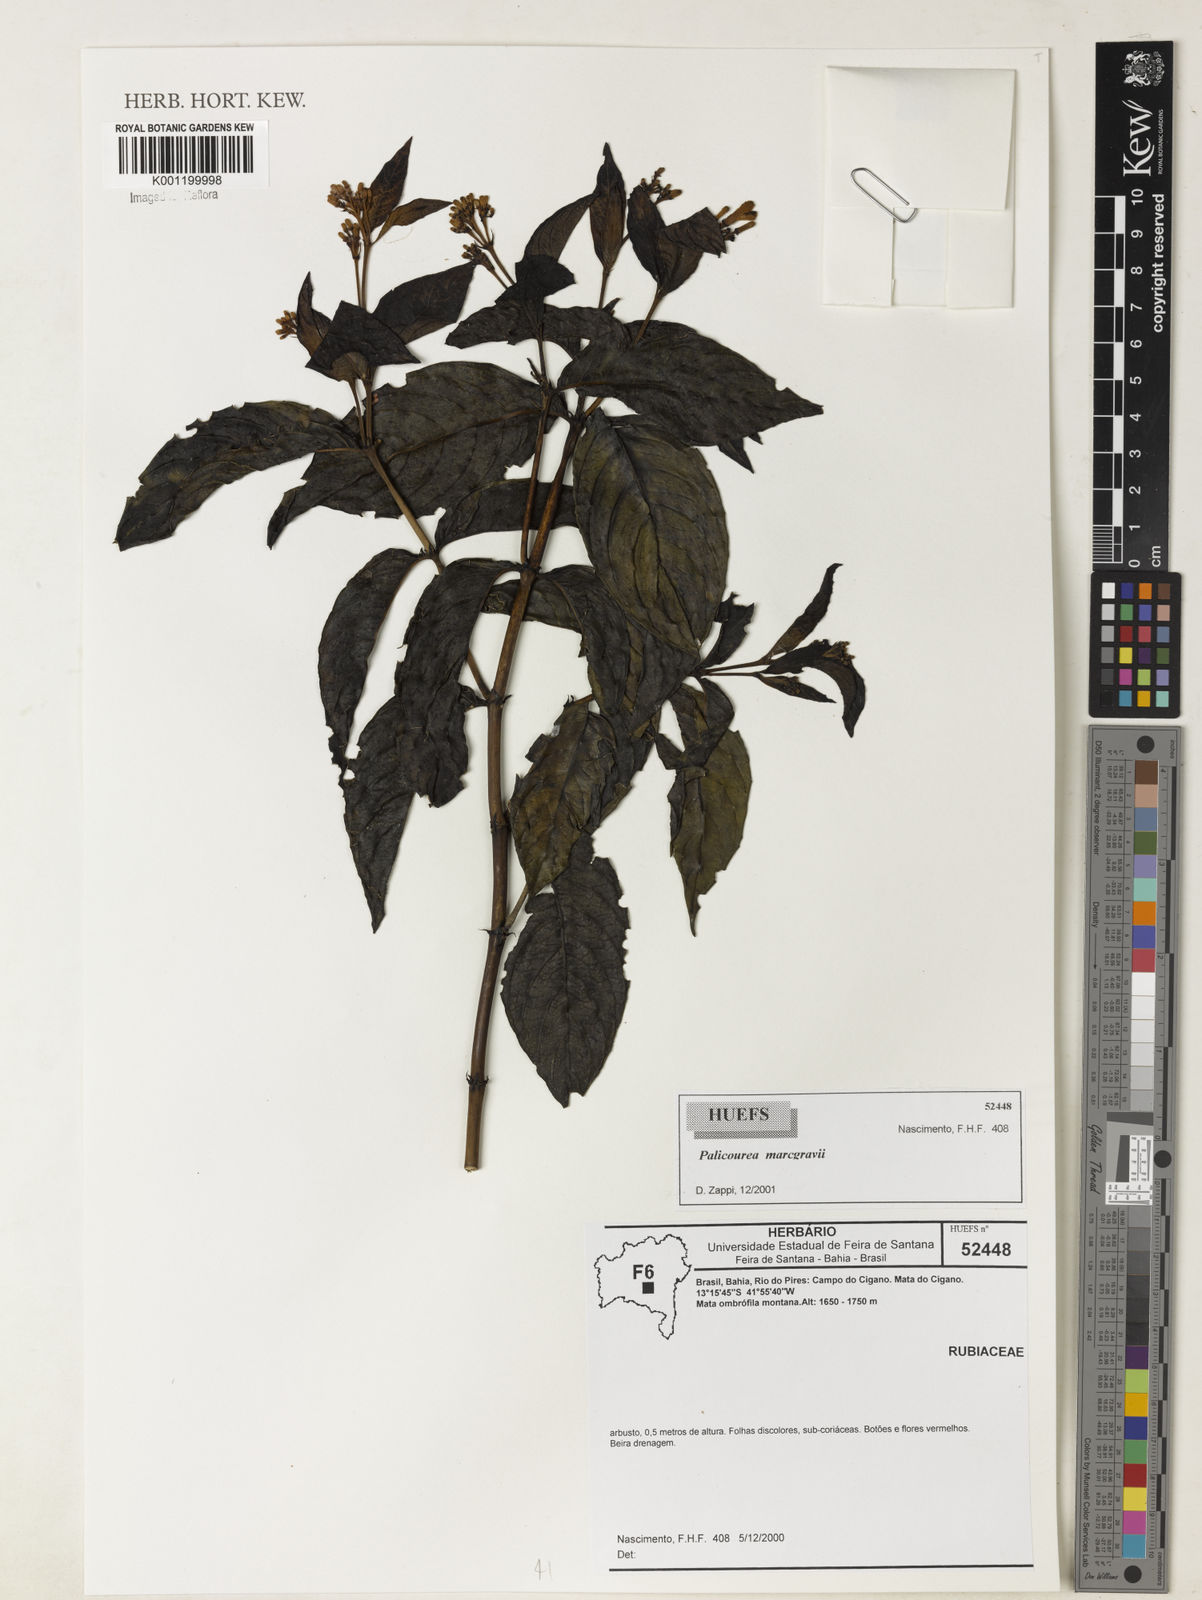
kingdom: Plantae
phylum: Tracheophyta
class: Magnoliopsida
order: Gentianales
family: Rubiaceae
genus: Palicourea
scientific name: Palicourea marcgravii
